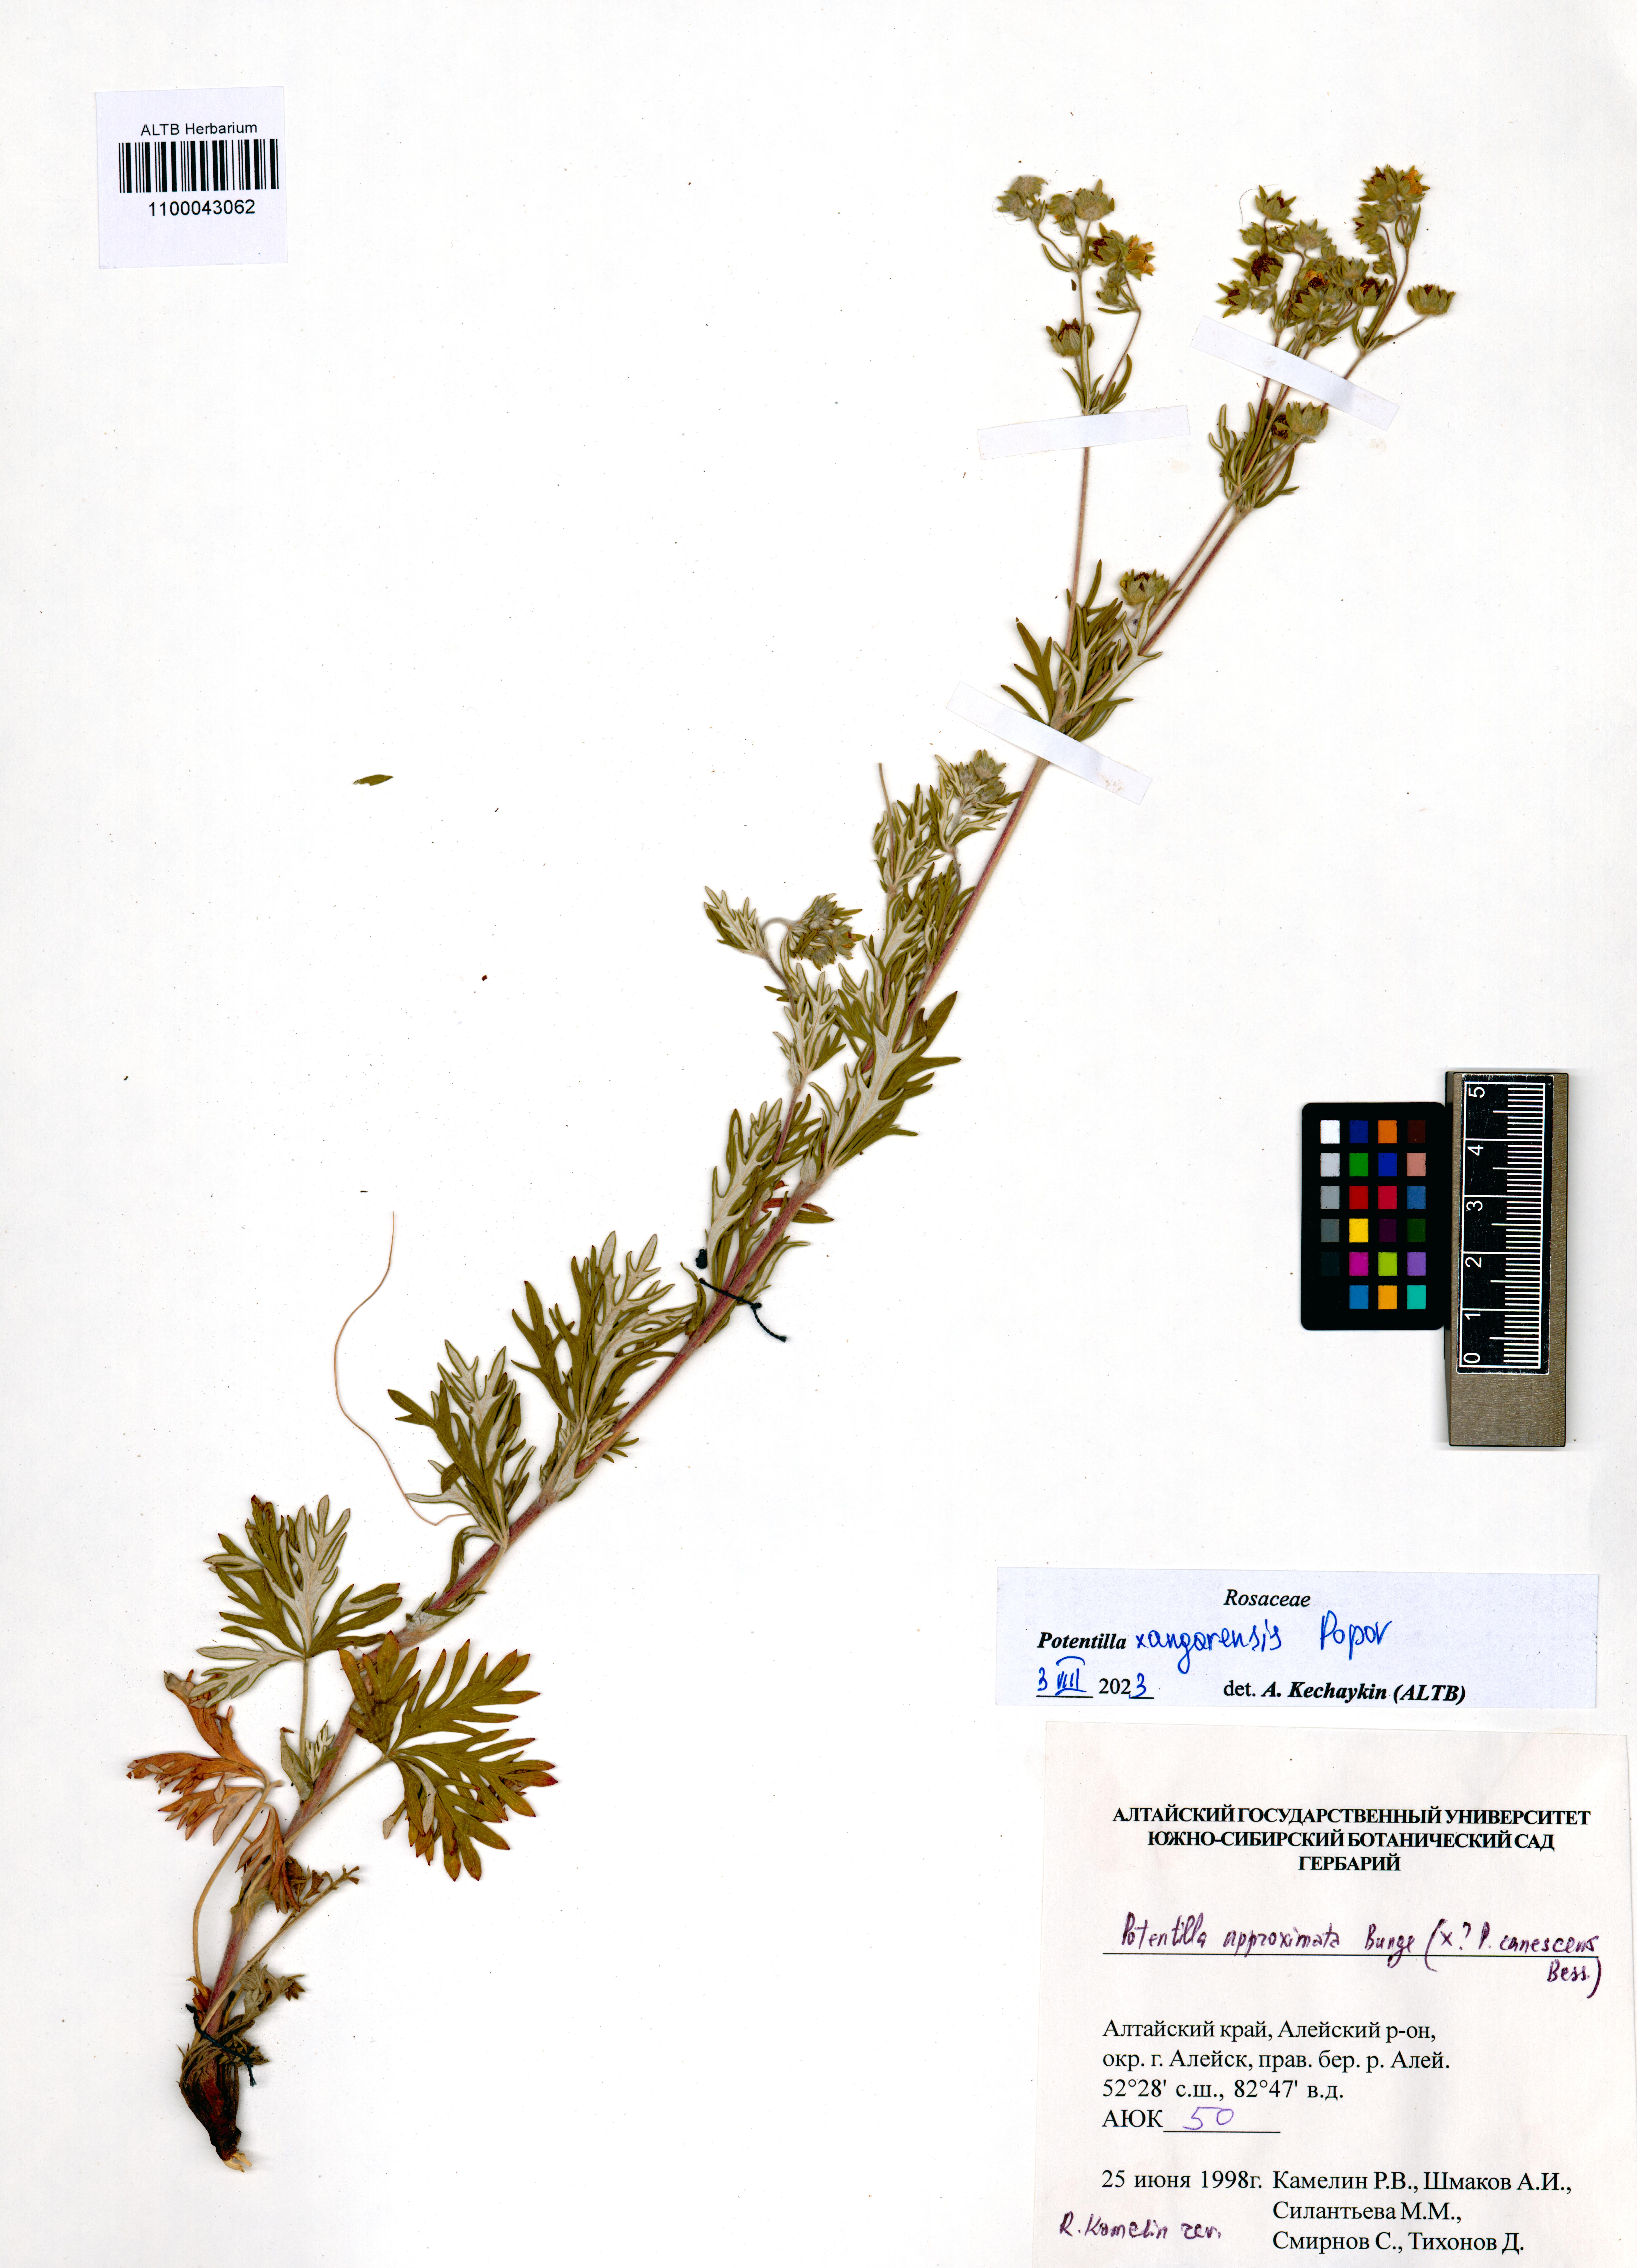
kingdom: Plantae
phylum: Tracheophyta
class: Magnoliopsida
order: Rosales
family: Rosaceae
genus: Potentilla
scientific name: Potentilla angarensis
